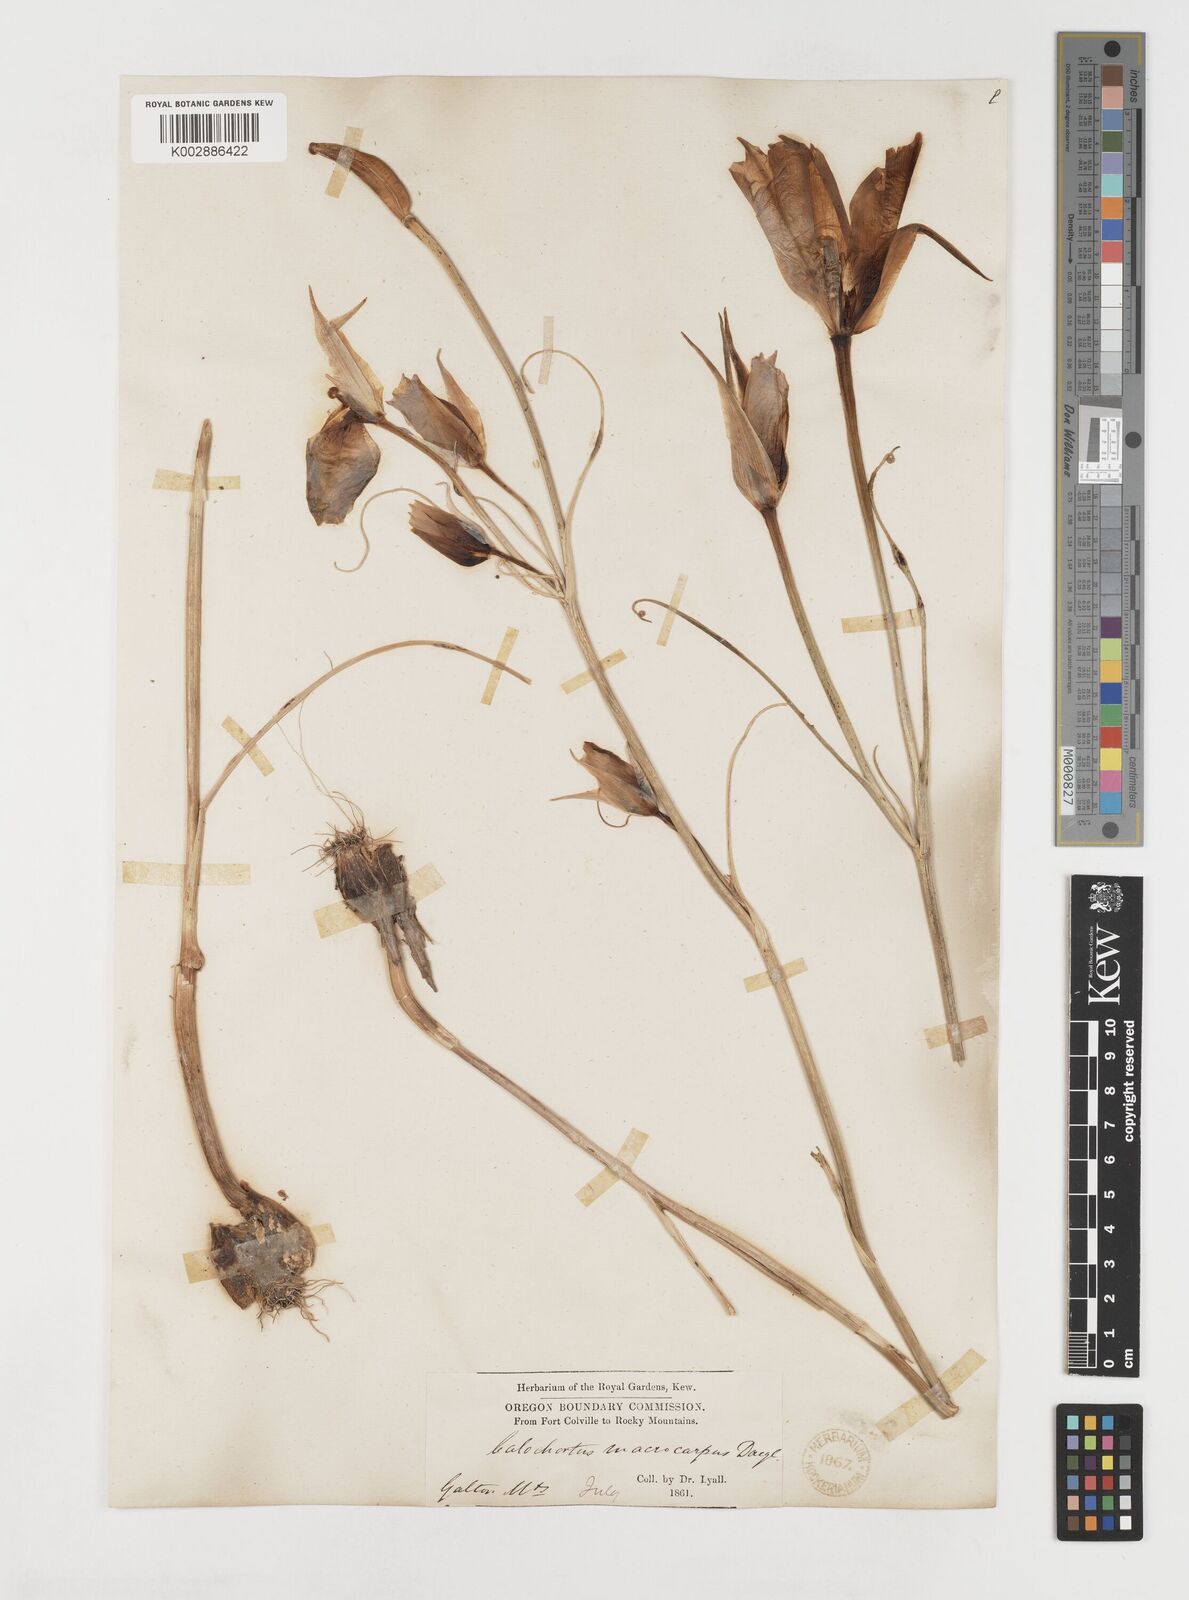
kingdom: Plantae
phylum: Tracheophyta
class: Liliopsida
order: Liliales
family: Liliaceae
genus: Calochortus
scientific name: Calochortus macrocarpus
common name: Green-band mariposa lily
